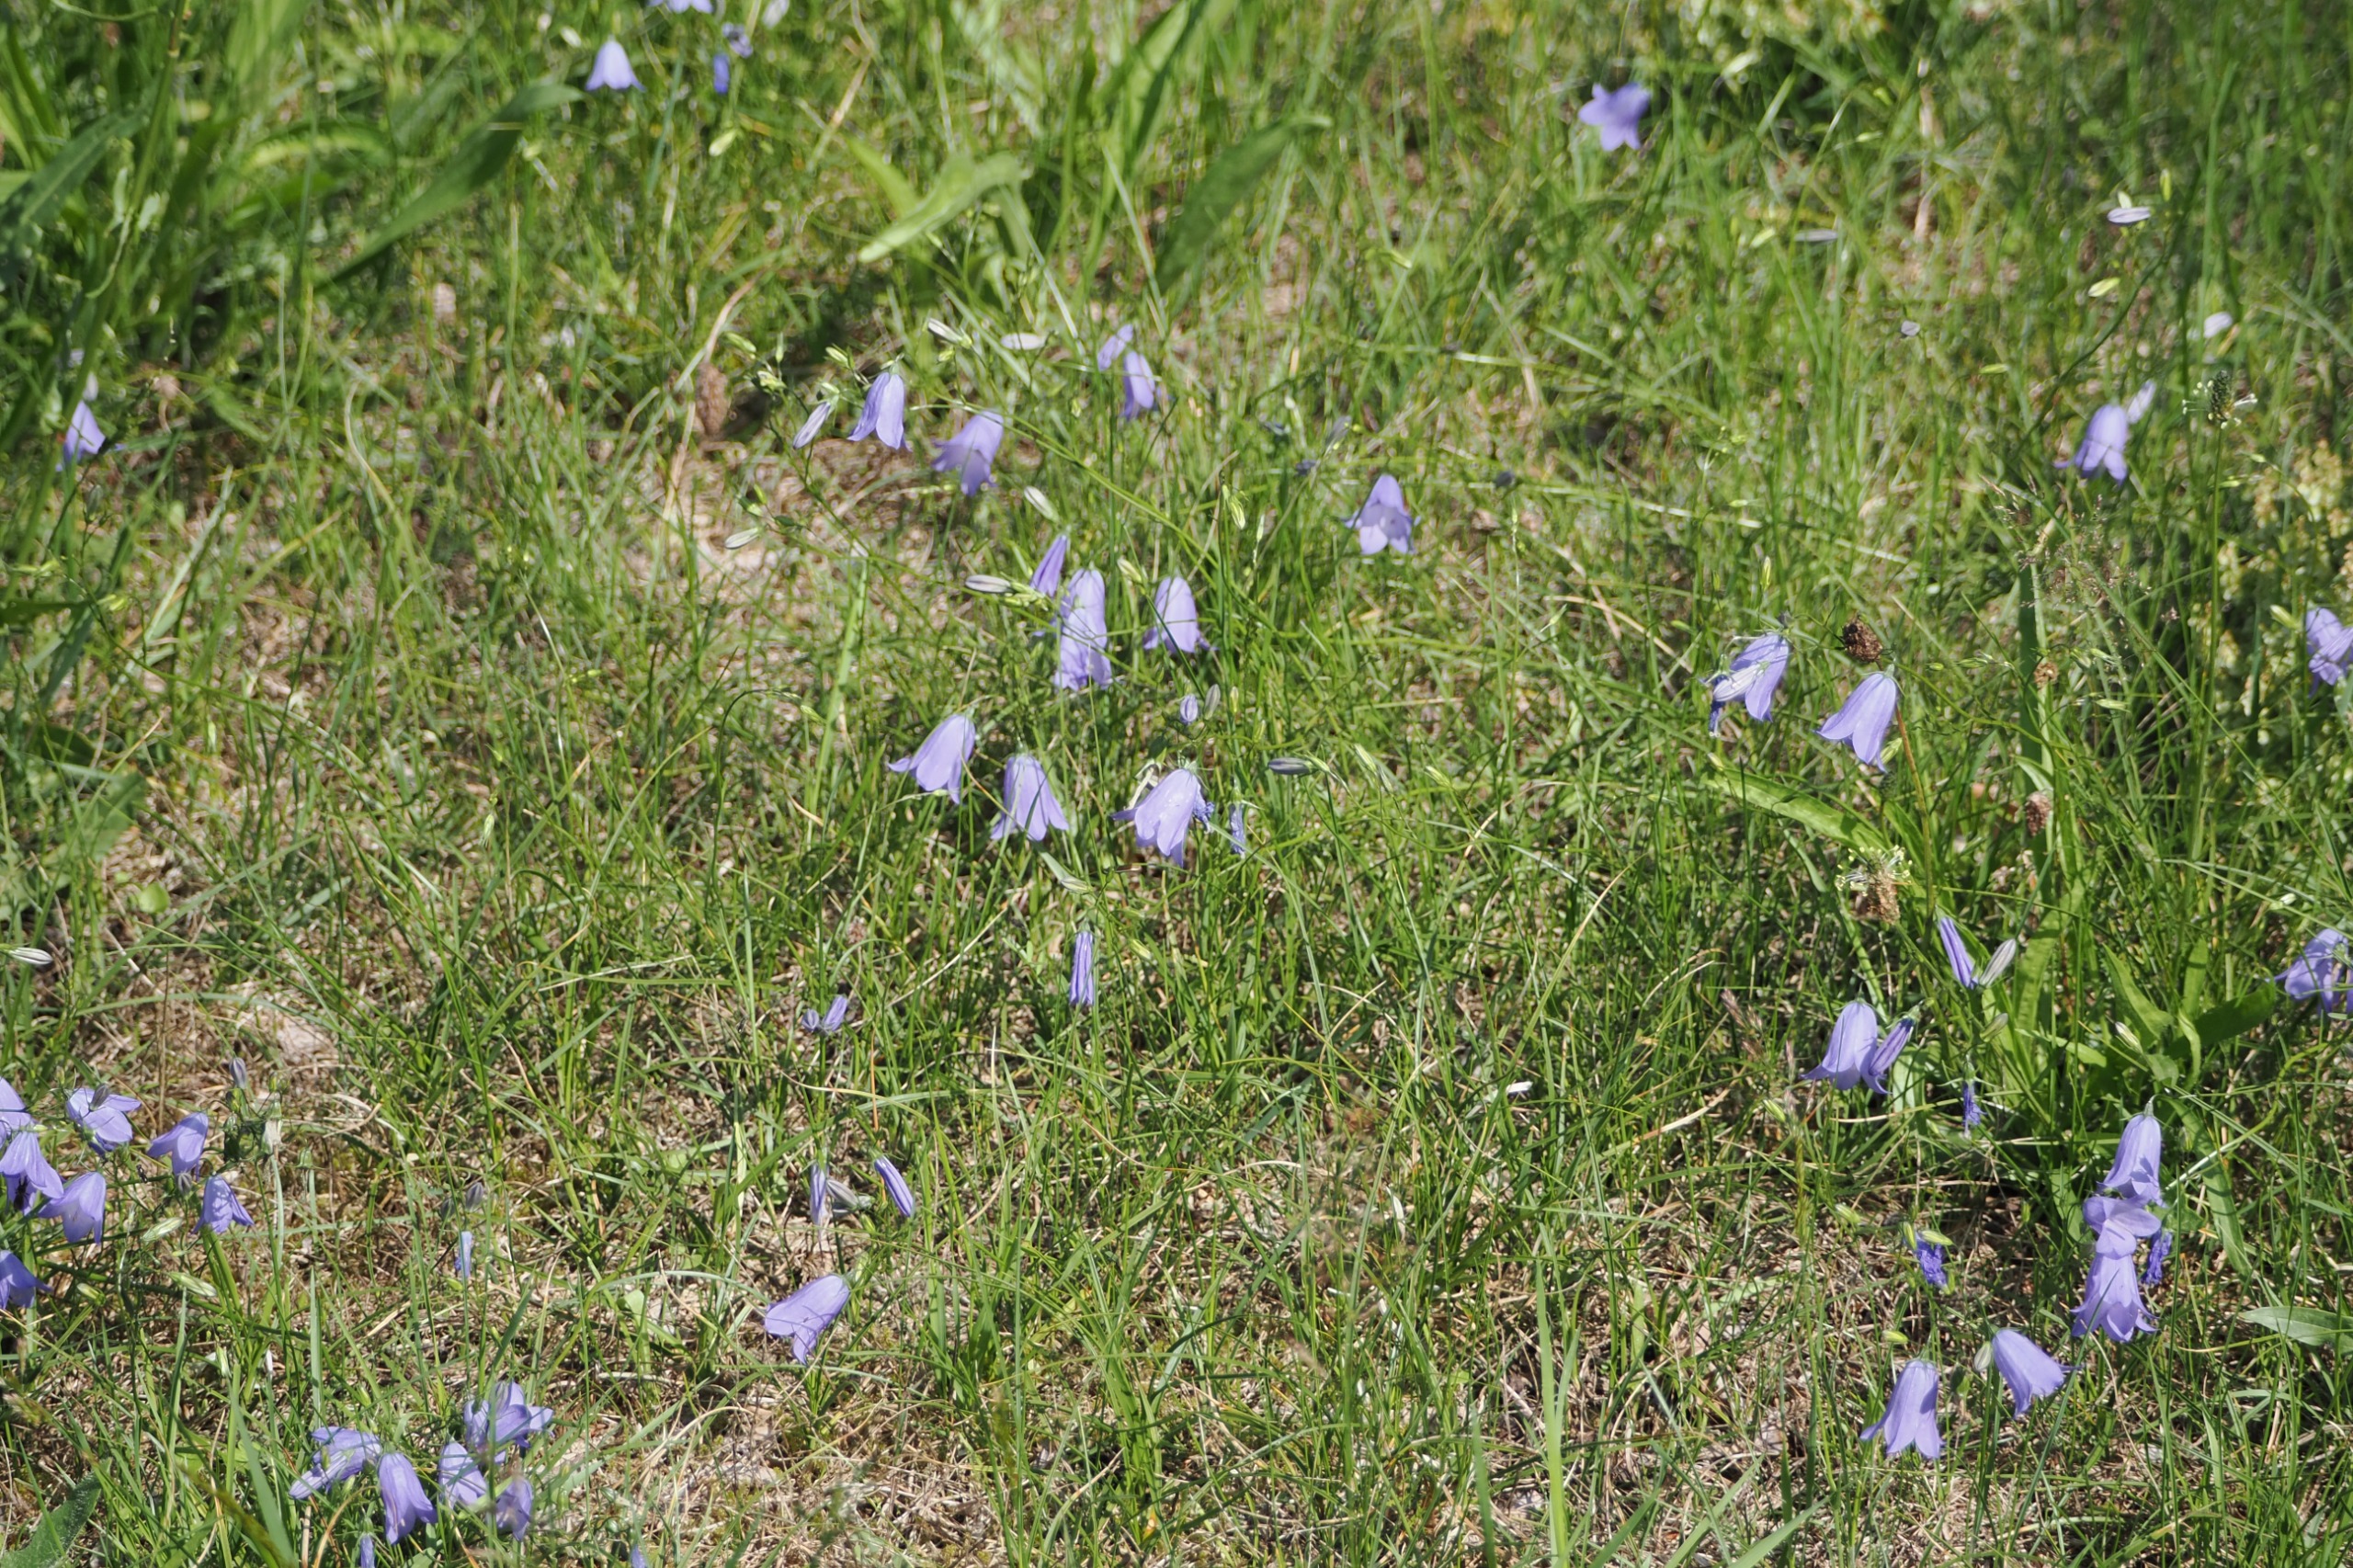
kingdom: Plantae
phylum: Tracheophyta
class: Magnoliopsida
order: Asterales
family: Campanulaceae
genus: Campanula
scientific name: Campanula rotundifolia
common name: Liden klokke
